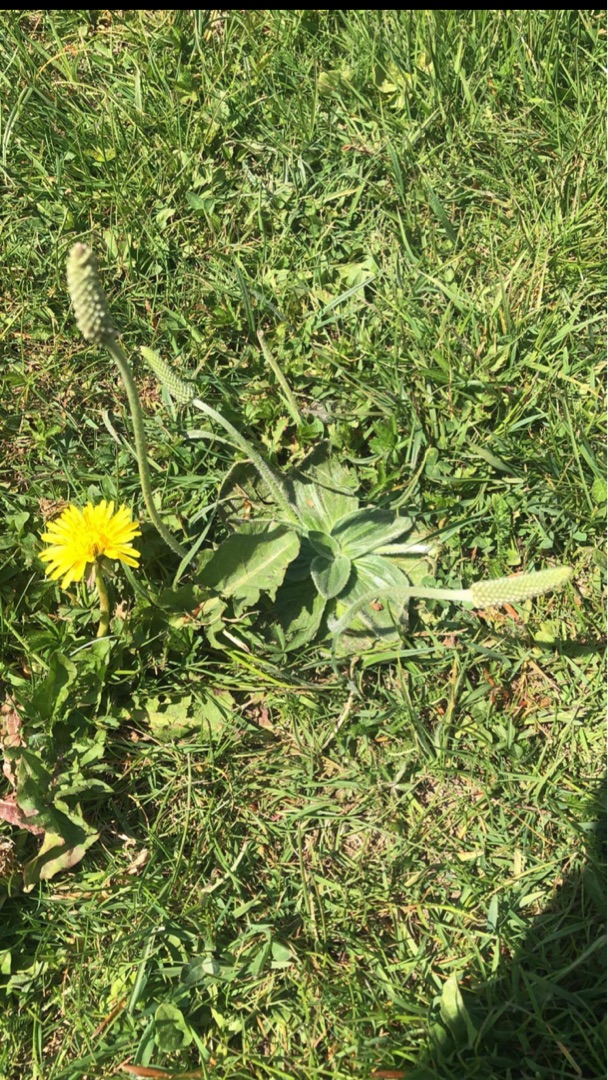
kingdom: Plantae
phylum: Tracheophyta
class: Magnoliopsida
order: Lamiales
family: Plantaginaceae
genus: Plantago
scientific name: Plantago media
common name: Dunet vejbred
